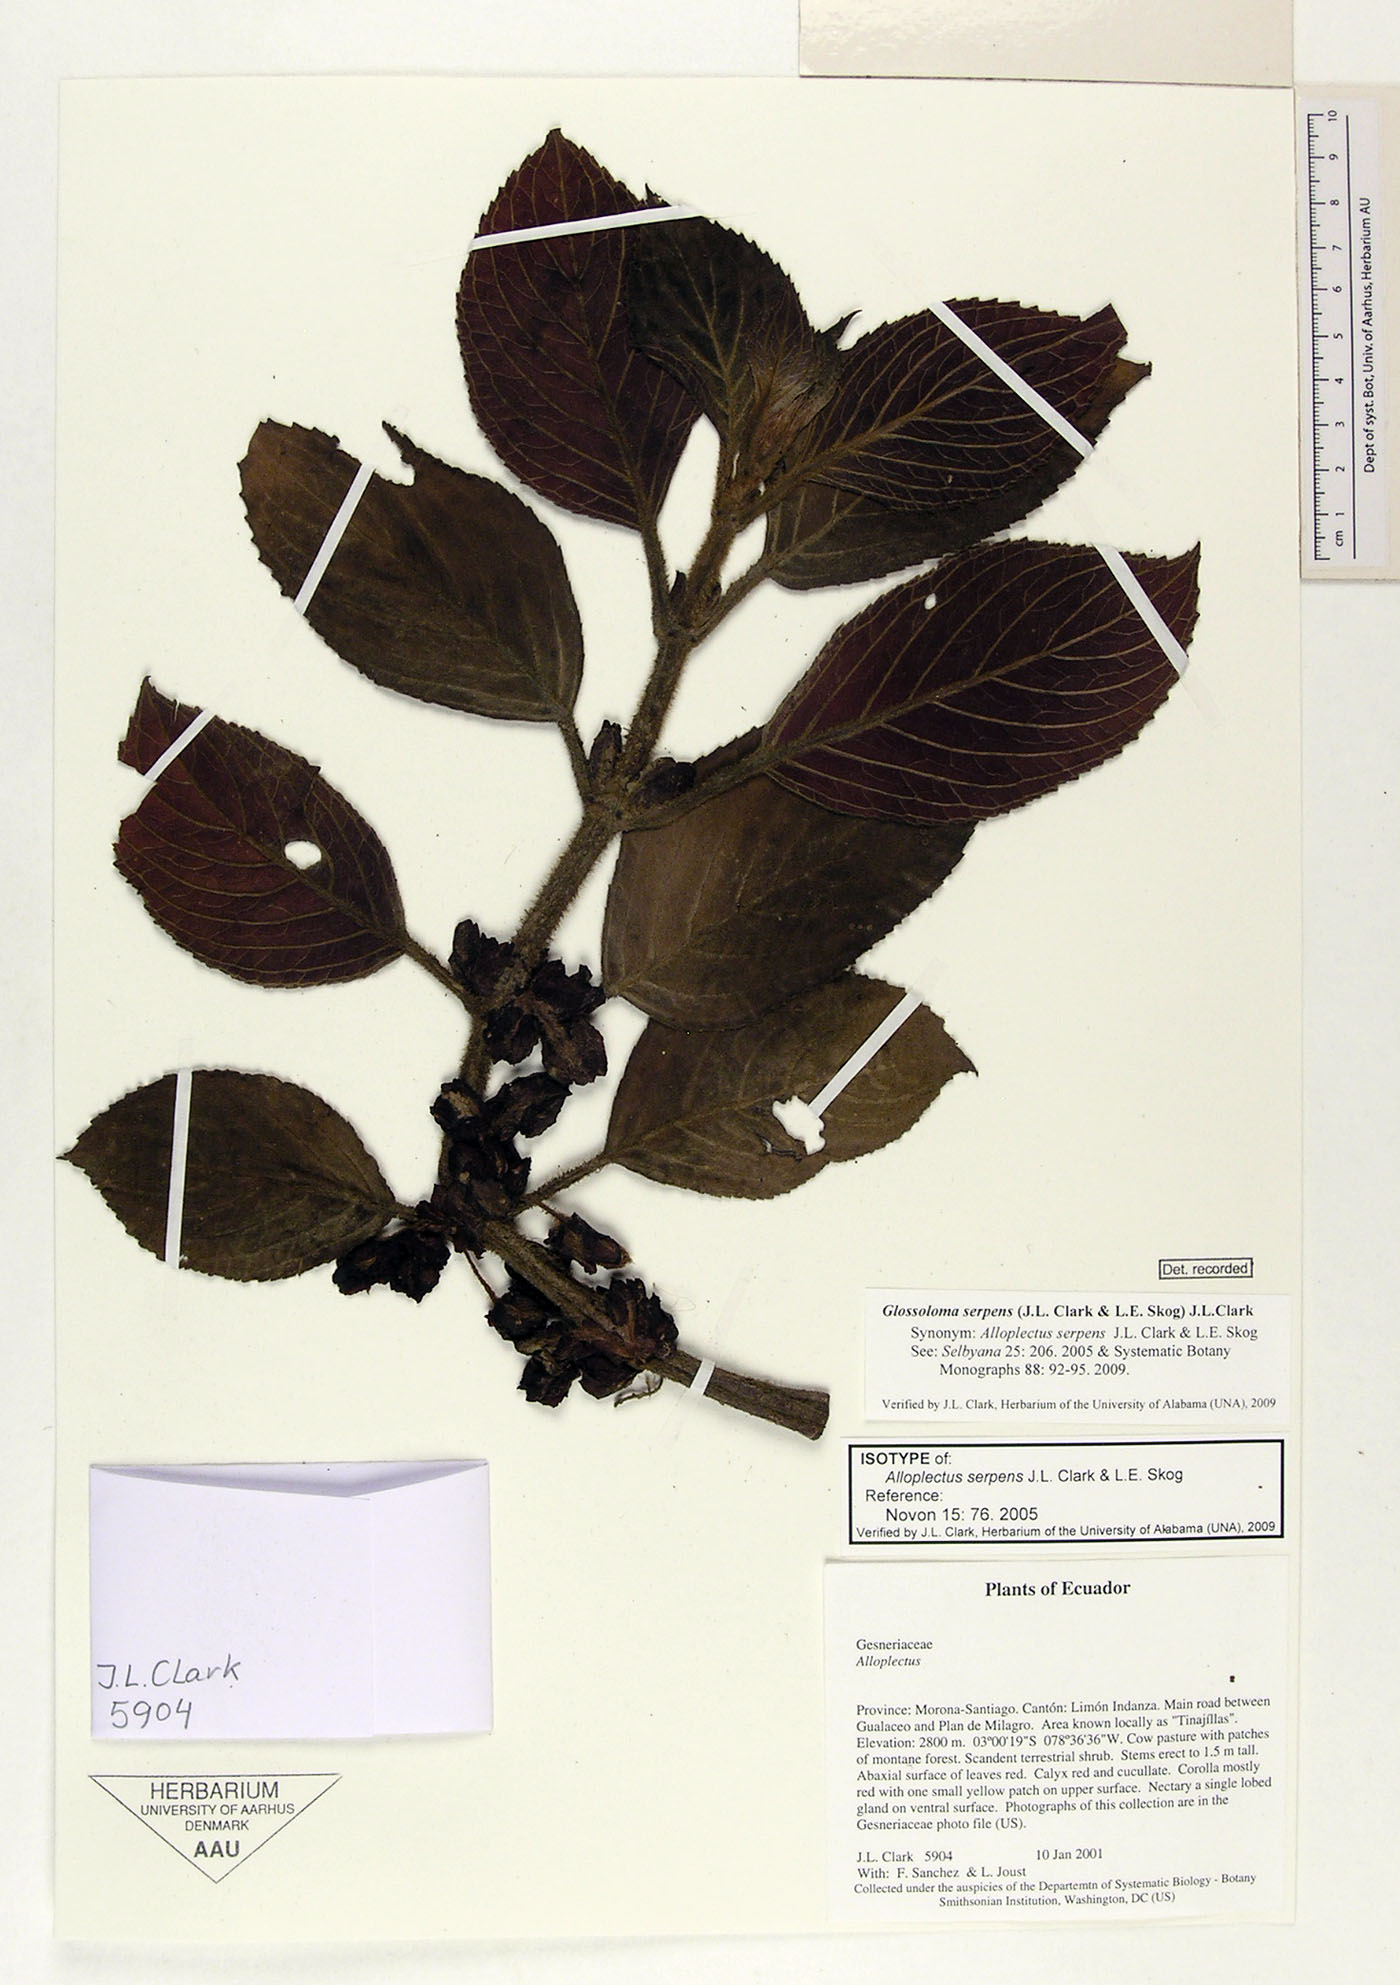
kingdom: Plantae
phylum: Tracheophyta
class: Magnoliopsida
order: Lamiales
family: Gesneriaceae
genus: Glossoloma
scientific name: Glossoloma serpens
